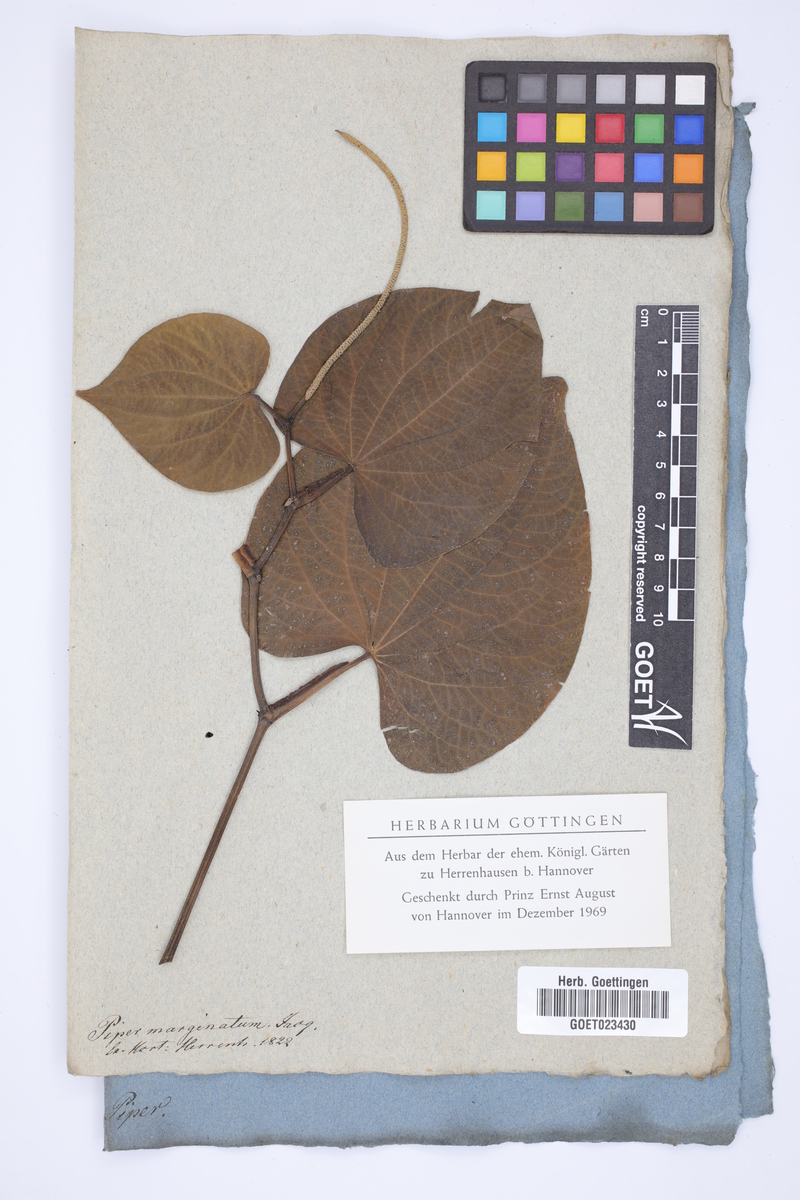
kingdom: Plantae
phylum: Tracheophyta
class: Magnoliopsida
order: Piperales
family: Piperaceae
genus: Piper
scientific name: Piper marginatum
